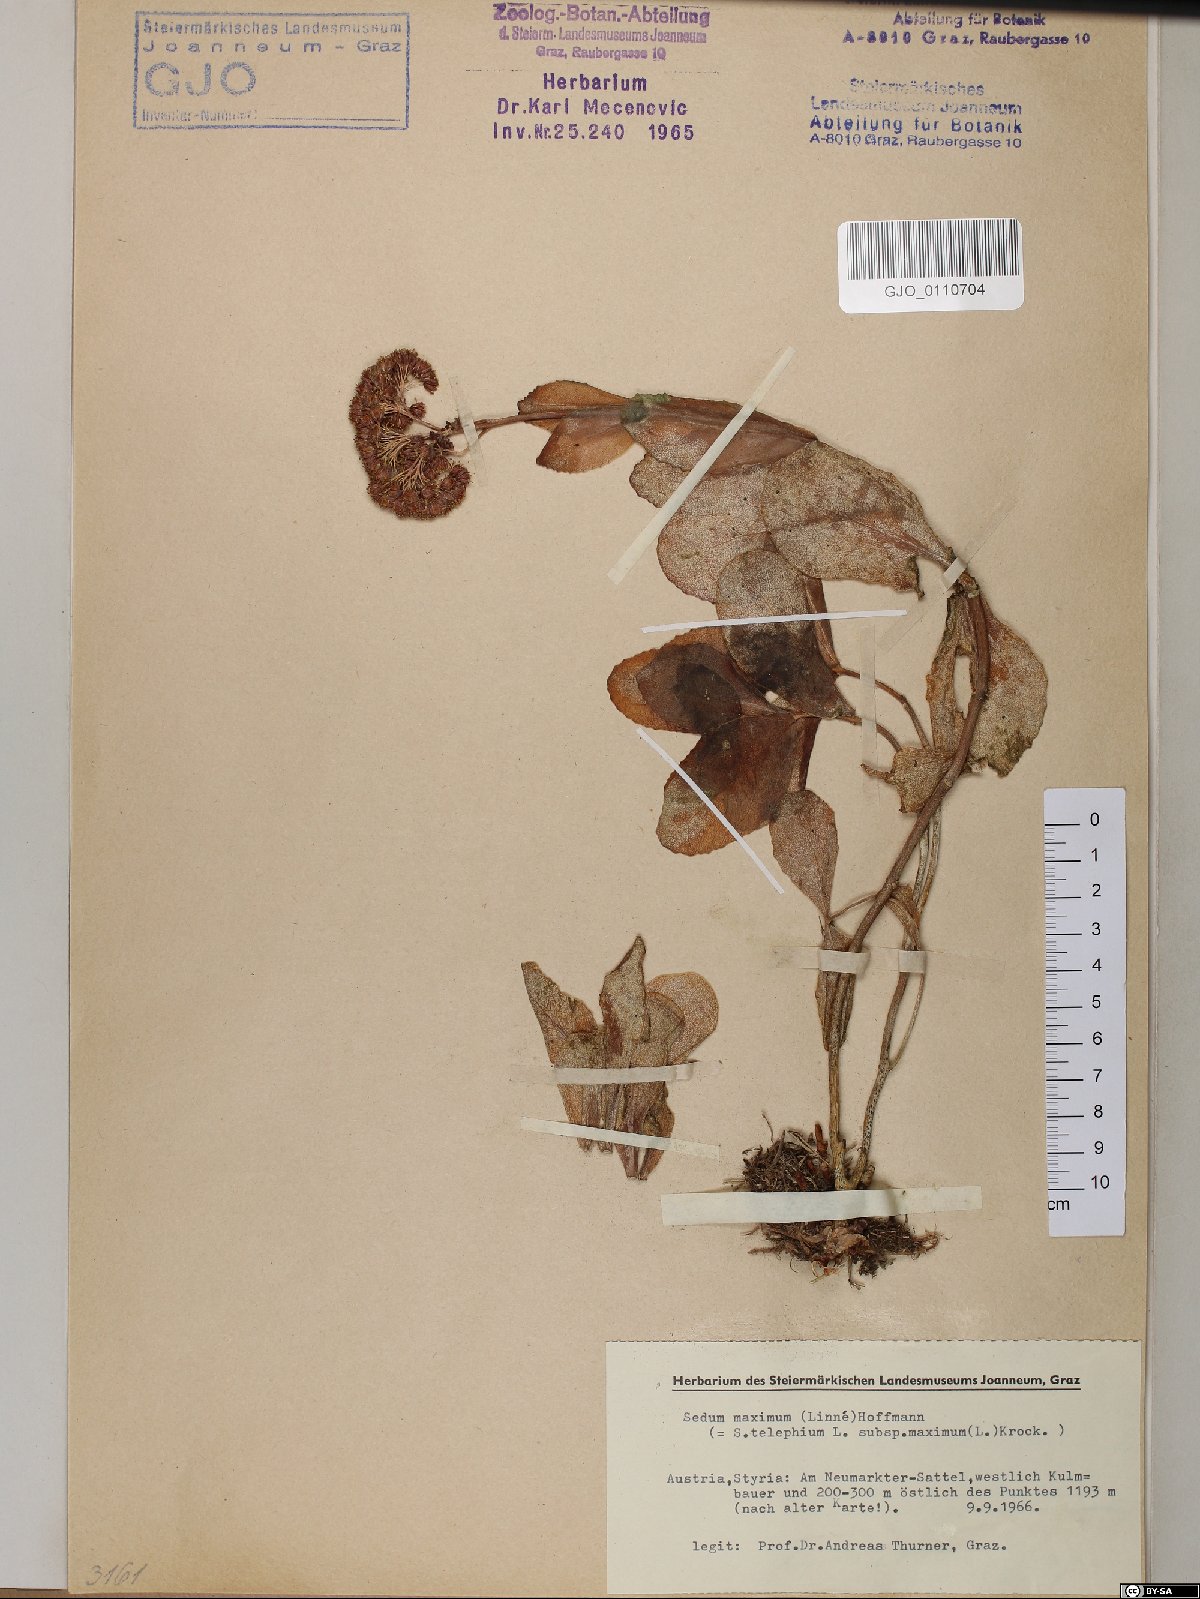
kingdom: Plantae
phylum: Tracheophyta
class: Magnoliopsida
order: Saxifragales
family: Crassulaceae
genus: Hylotelephium
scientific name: Hylotelephium maximum
